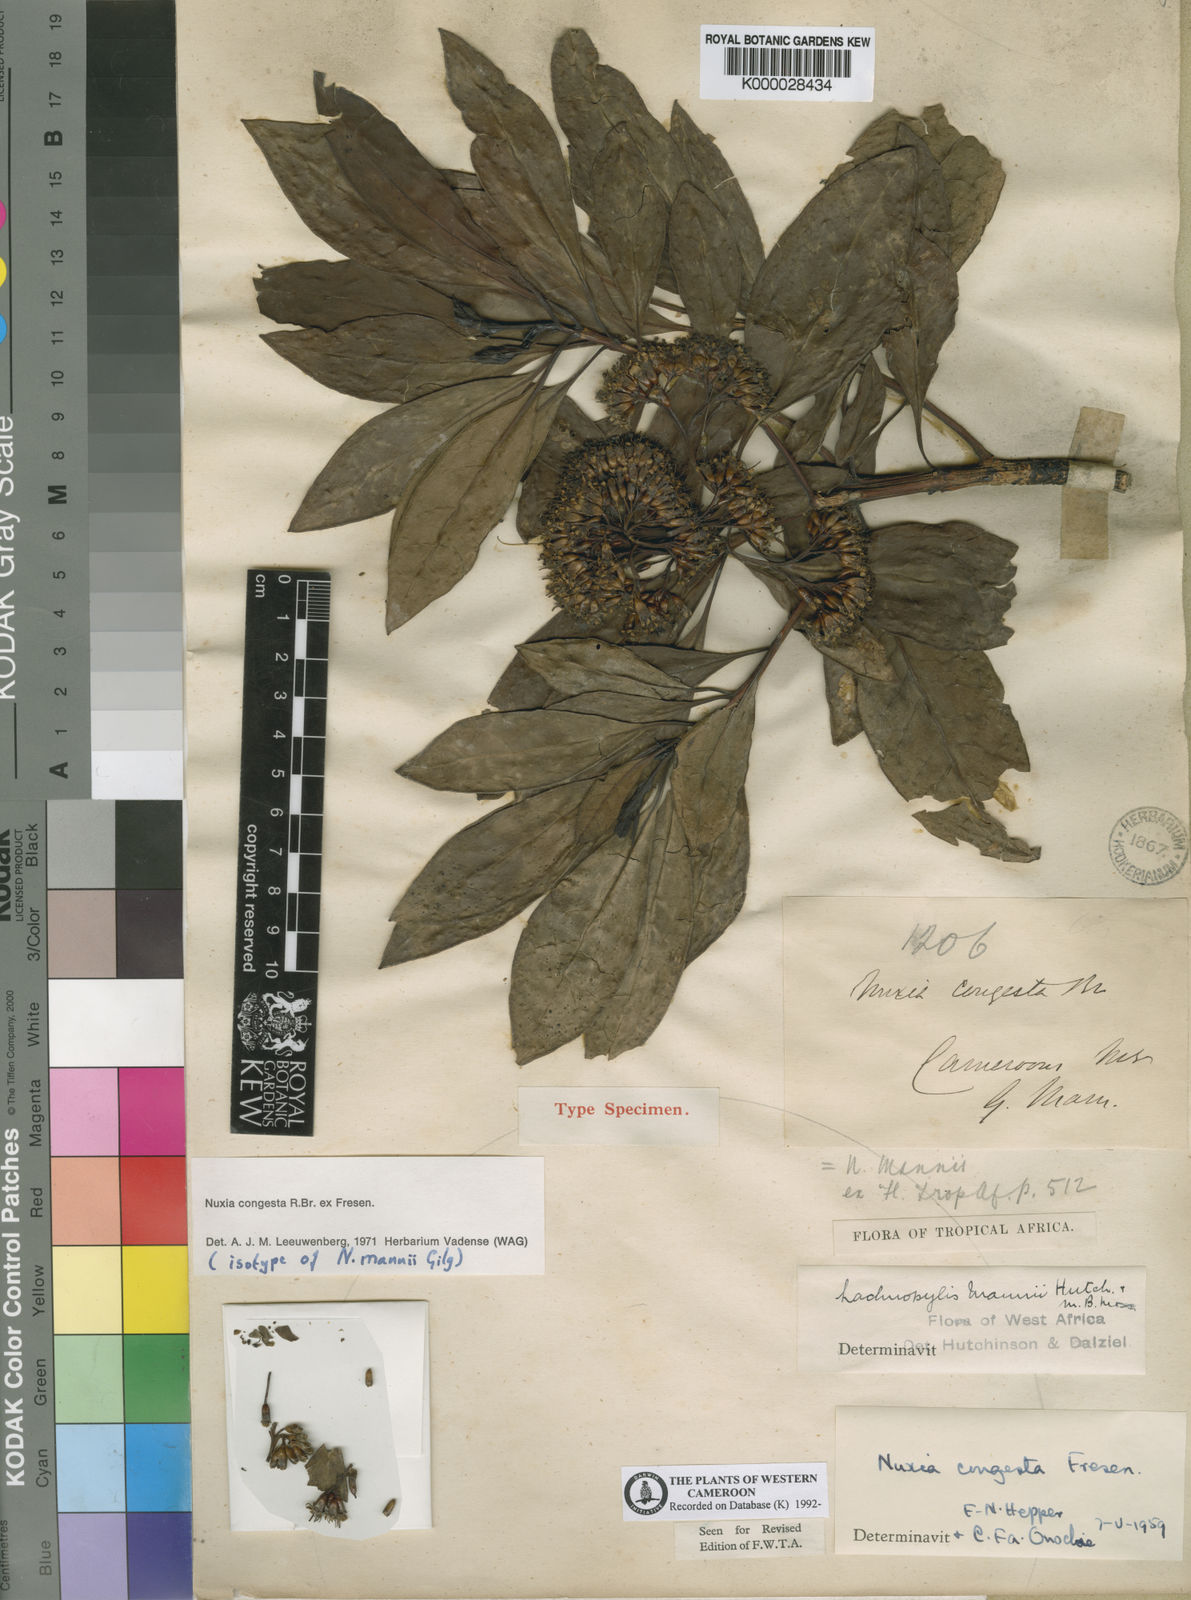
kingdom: Plantae
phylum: Tracheophyta
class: Magnoliopsida
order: Lamiales
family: Stilbaceae
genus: Nuxia
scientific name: Nuxia congesta
